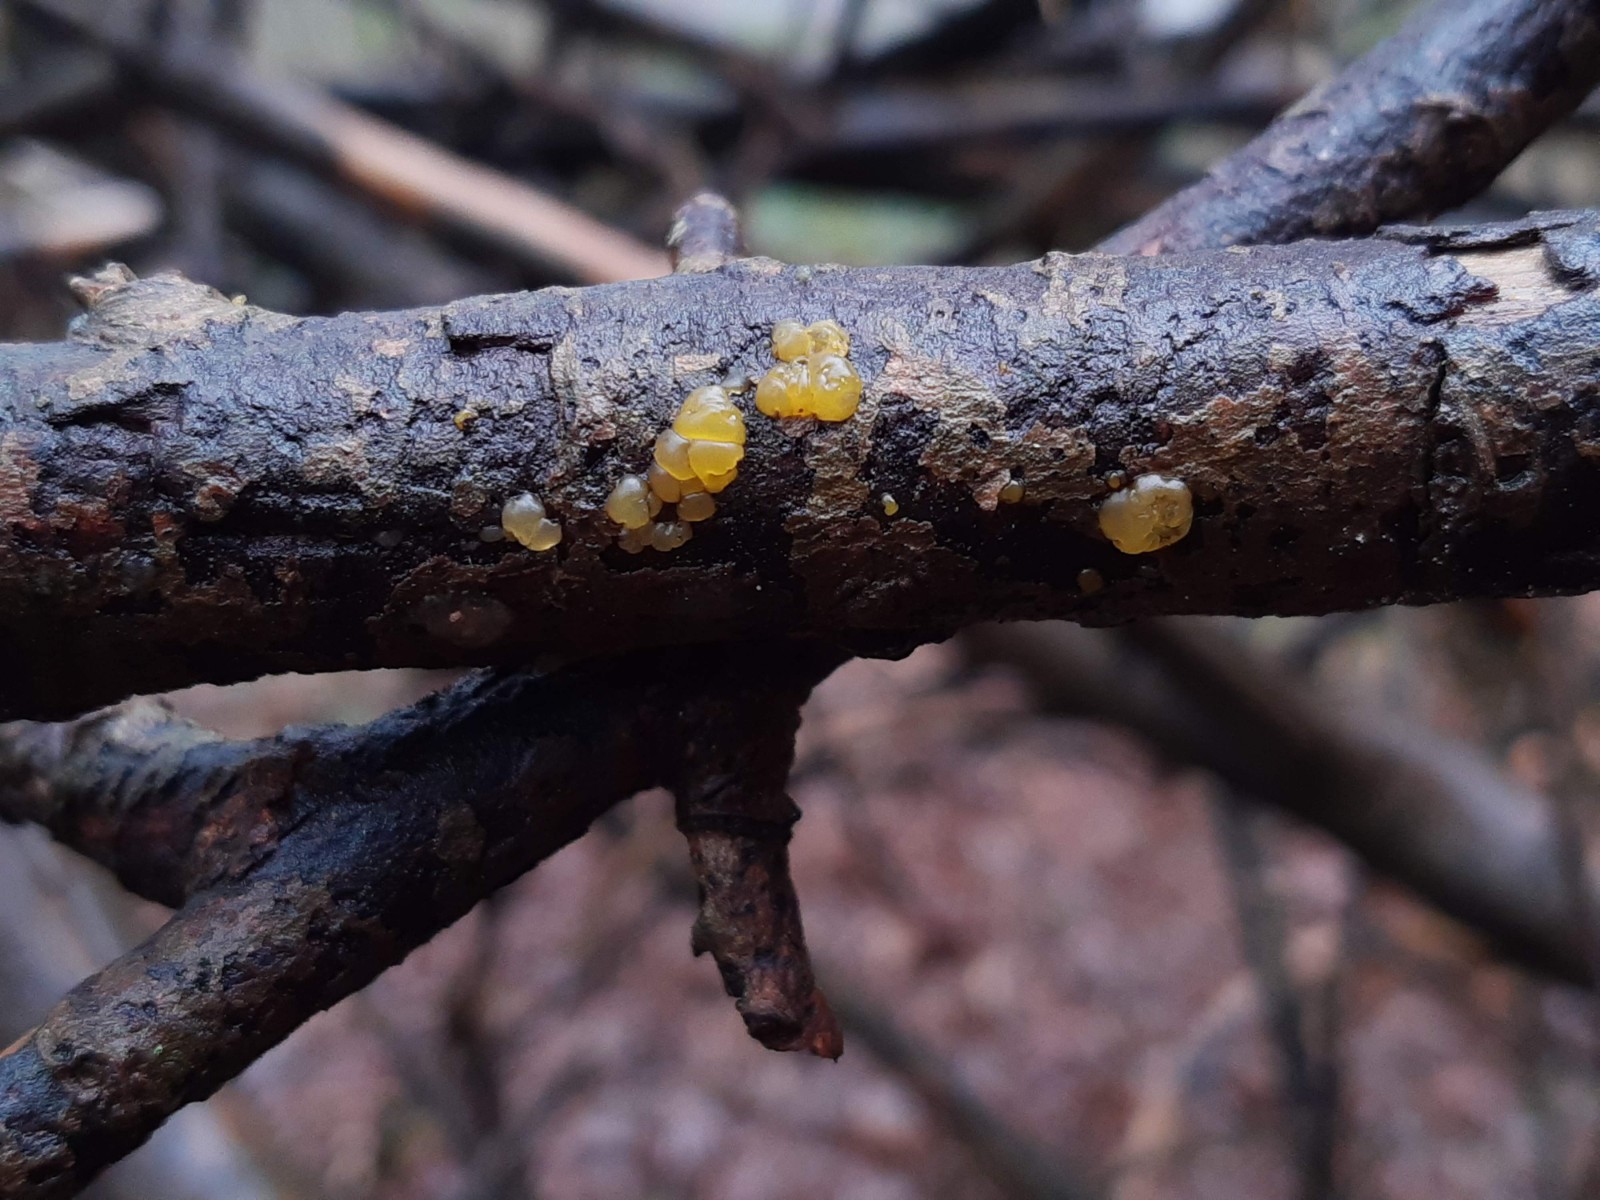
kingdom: Fungi
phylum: Basidiomycota
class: Dacrymycetes
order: Dacrymycetales
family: Dacrymycetaceae
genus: Dacrymyces
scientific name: Dacrymyces lacrymalis
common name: rynket tåresvamp
